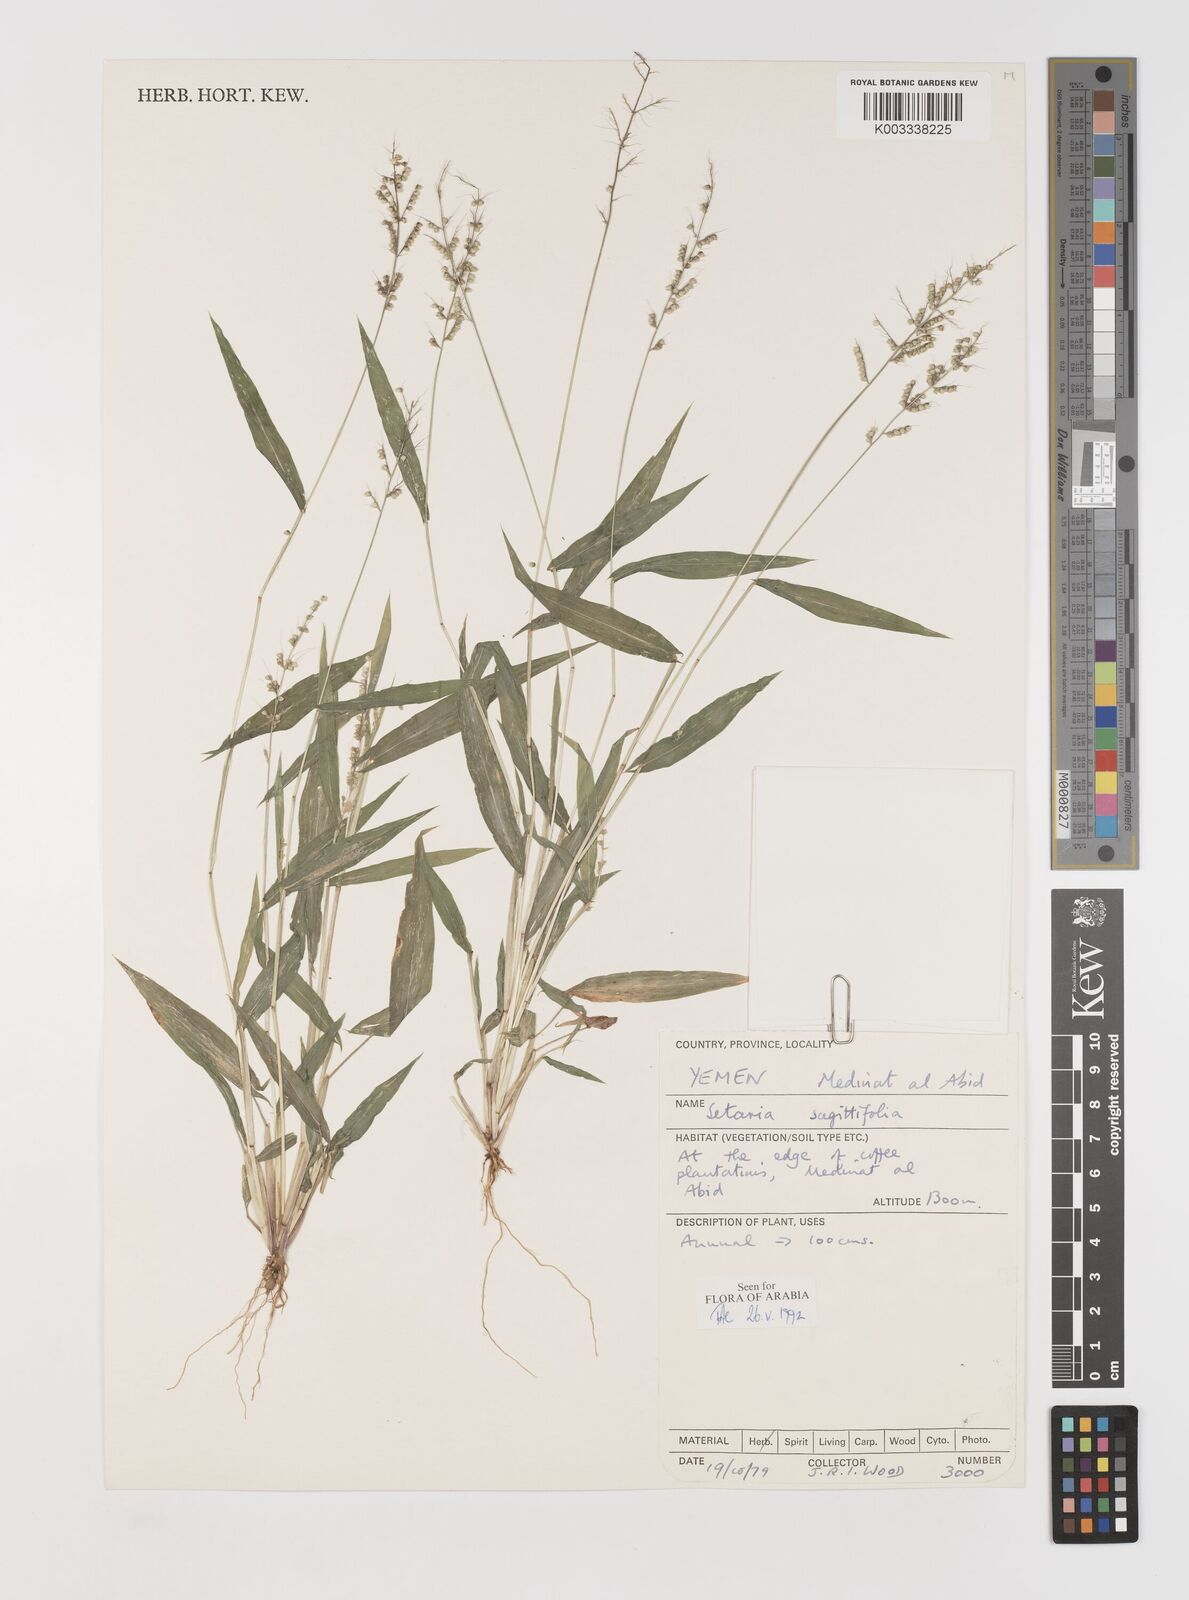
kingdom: Plantae
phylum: Tracheophyta
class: Liliopsida
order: Poales
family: Poaceae
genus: Setaria
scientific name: Setaria sagittifolia
